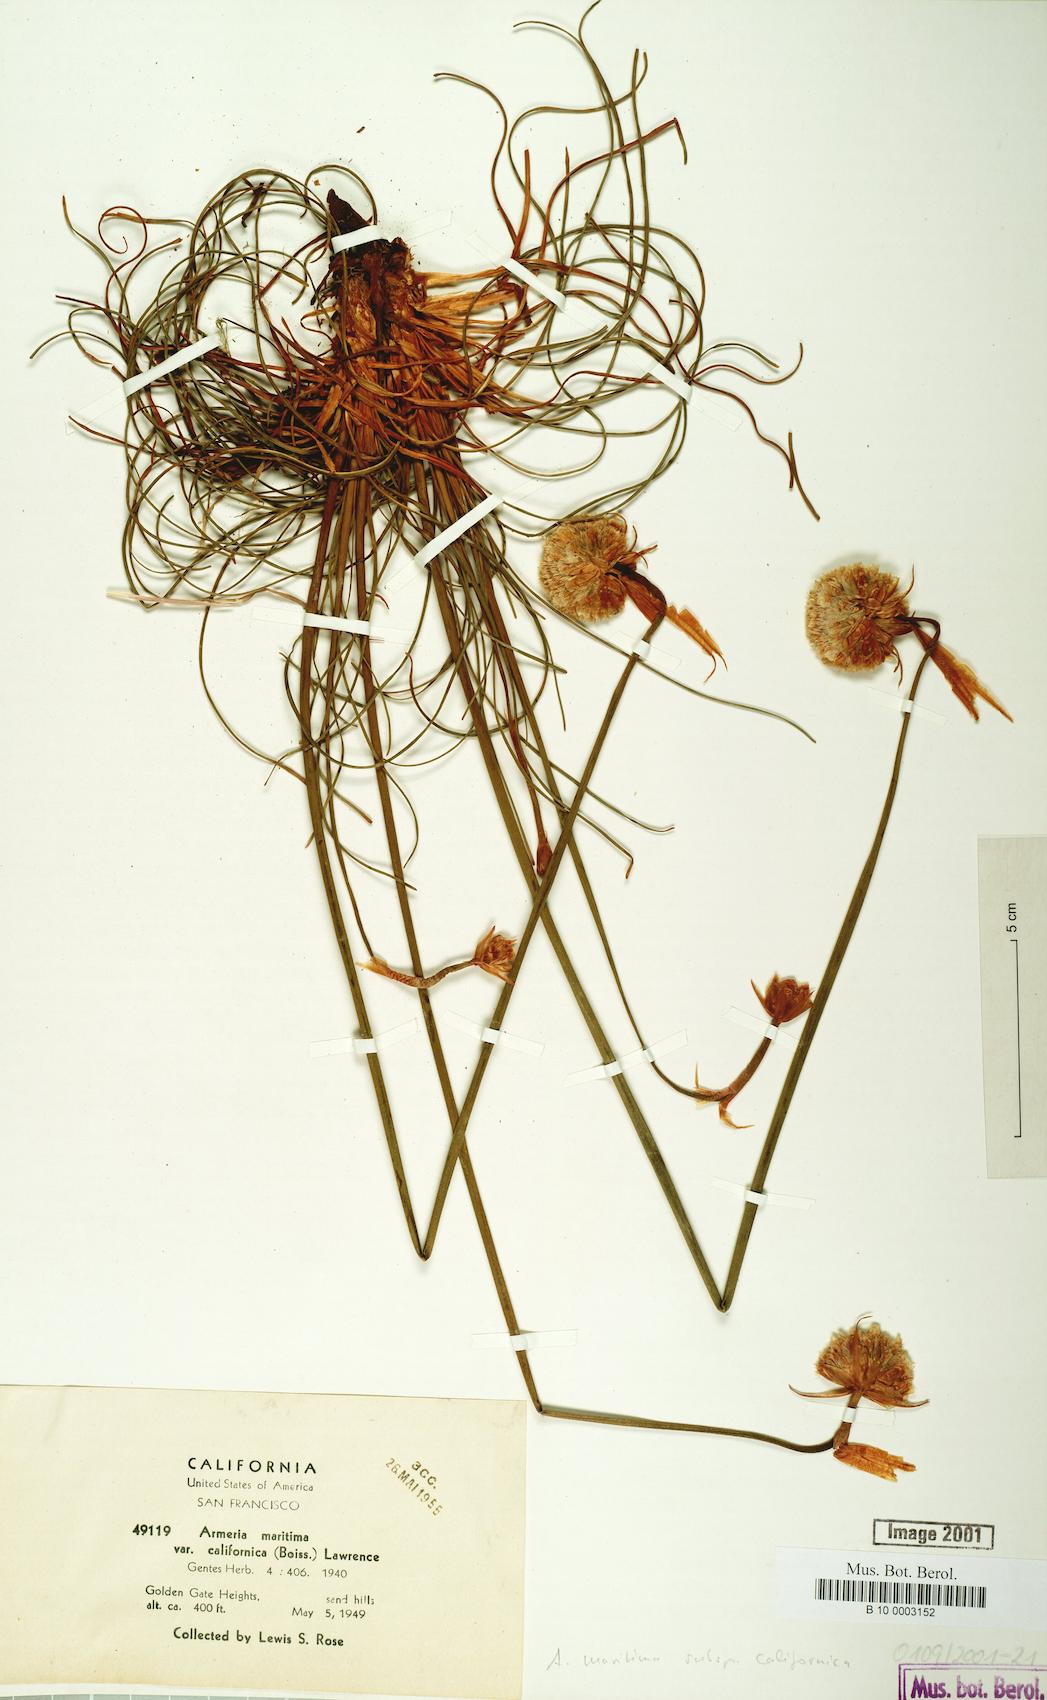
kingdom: Plantae
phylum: Tracheophyta
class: Magnoliopsida
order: Caryophyllales
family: Plumbaginaceae
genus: Armeria
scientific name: Armeria maritima
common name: Thrift
